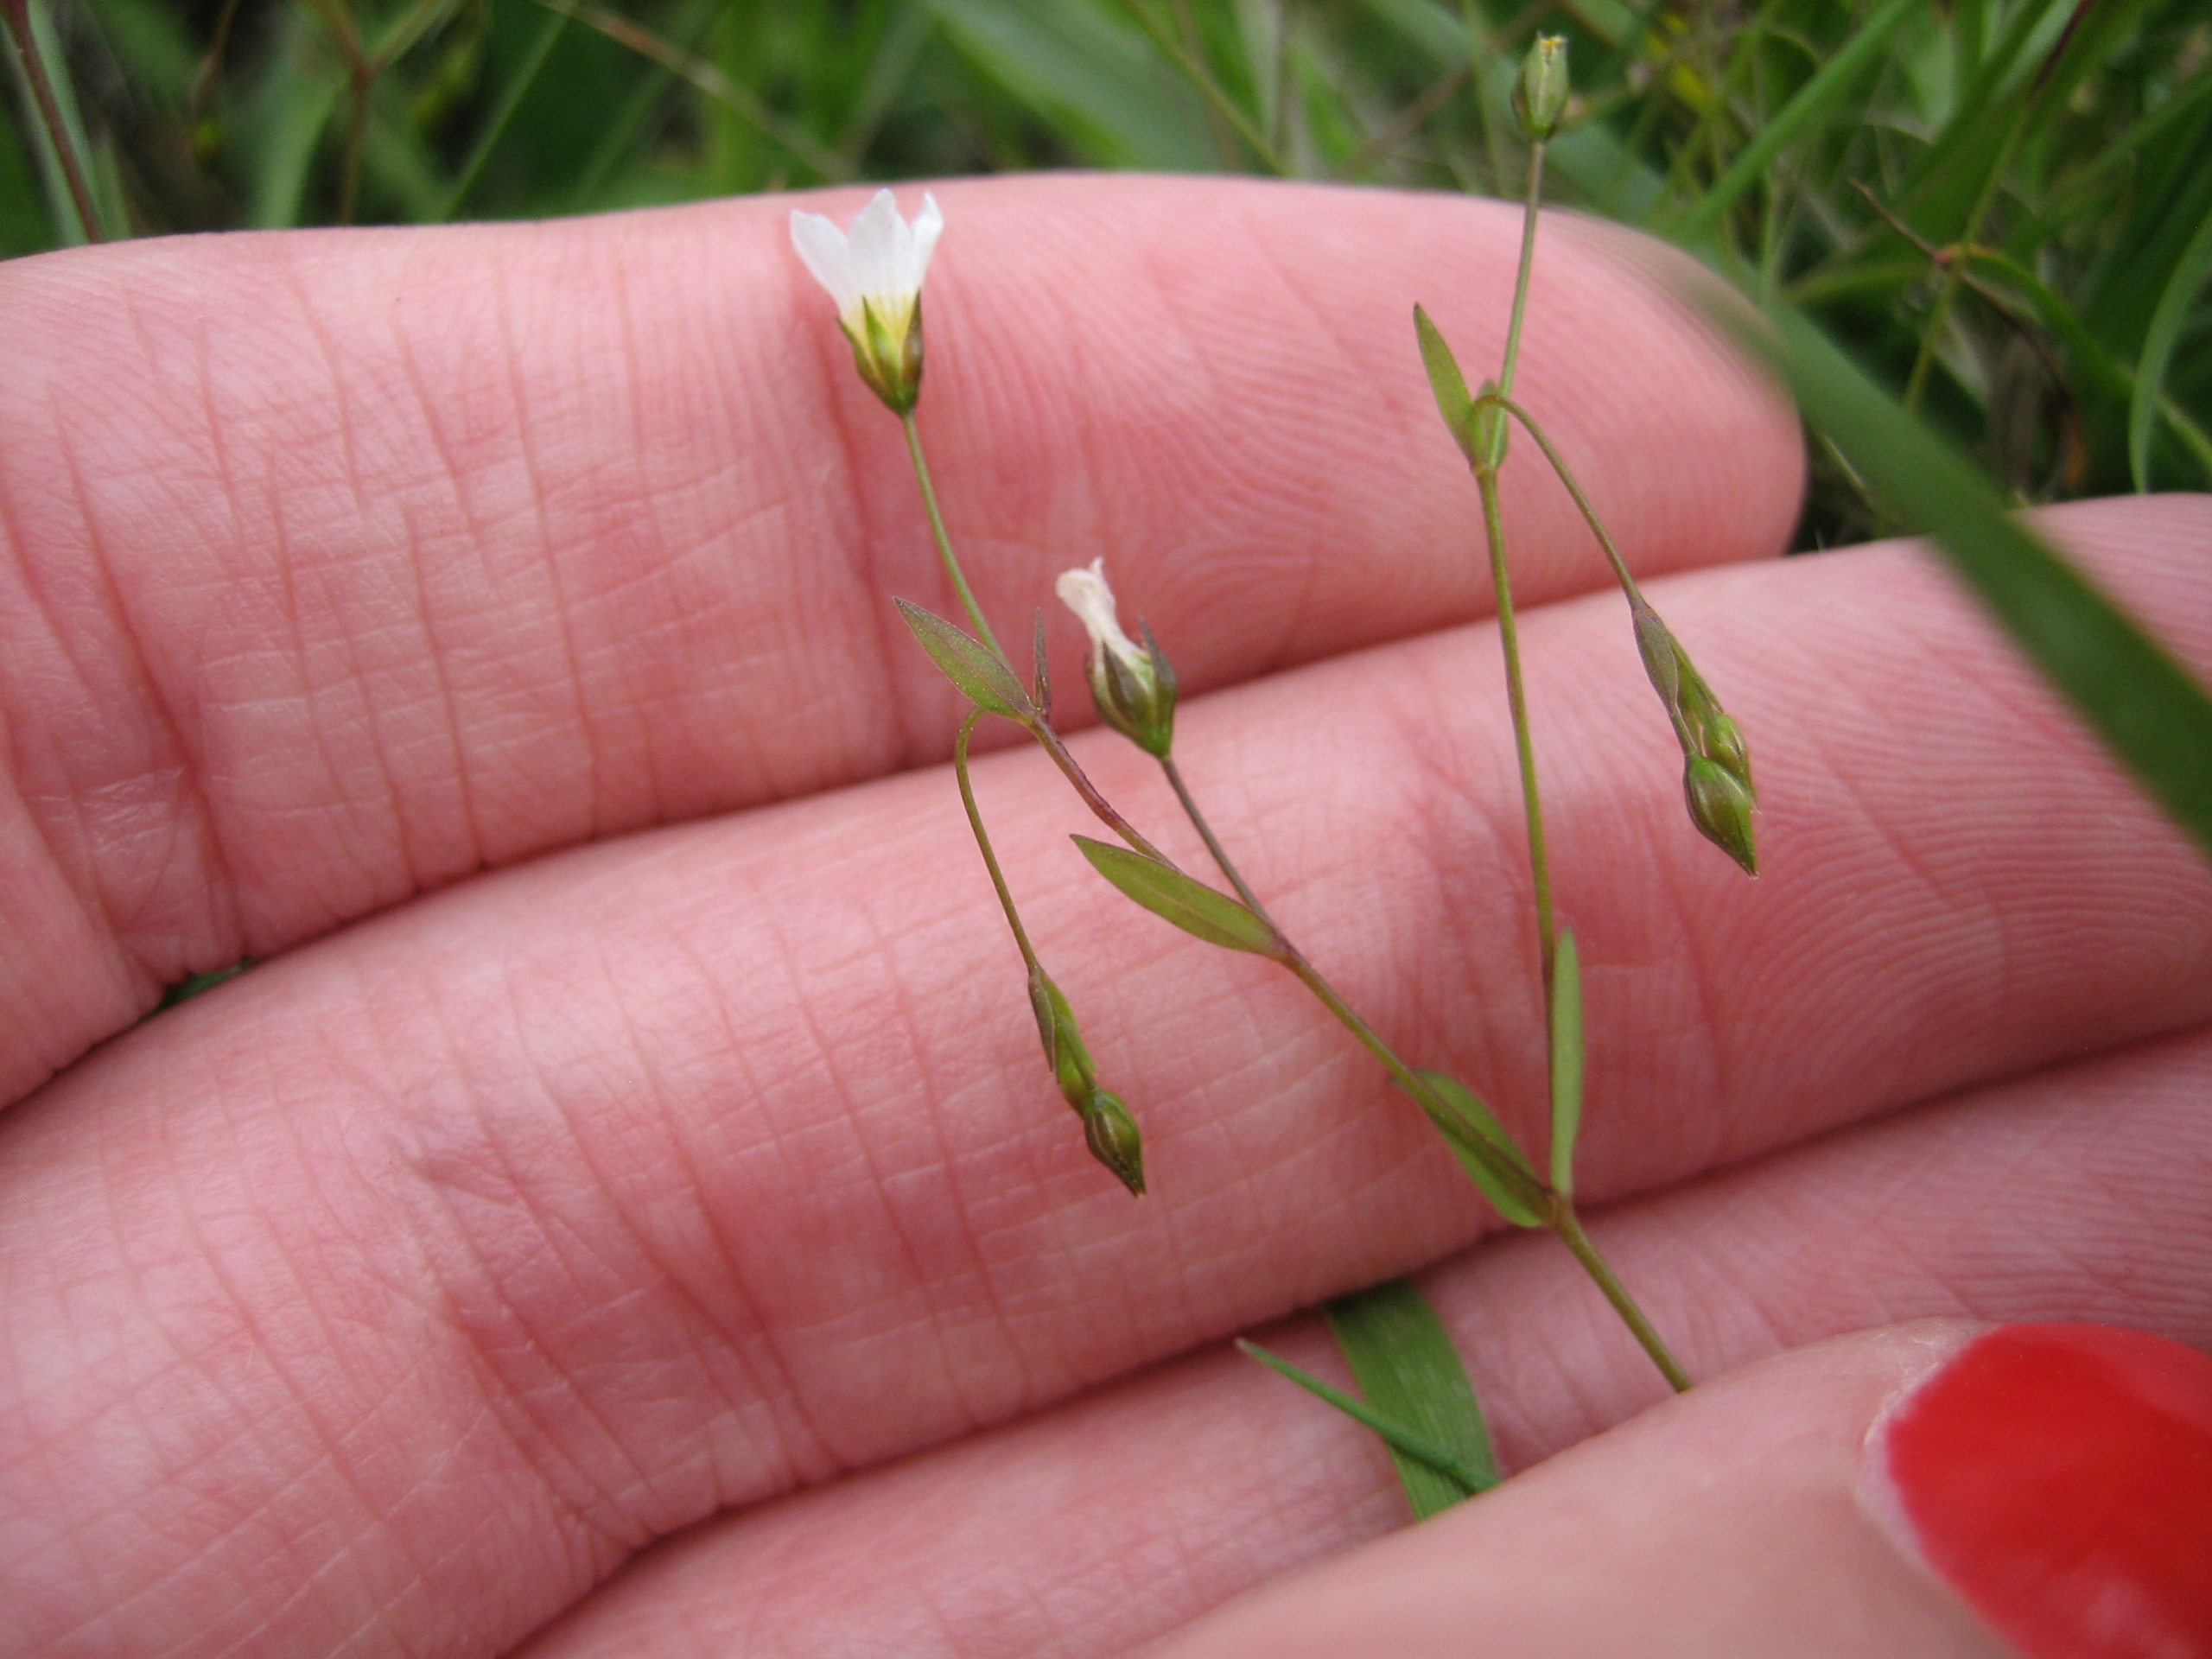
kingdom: Plantae
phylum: Tracheophyta
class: Magnoliopsida
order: Malpighiales
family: Linaceae
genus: Linum
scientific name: Linum catharticum
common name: Vild hør
